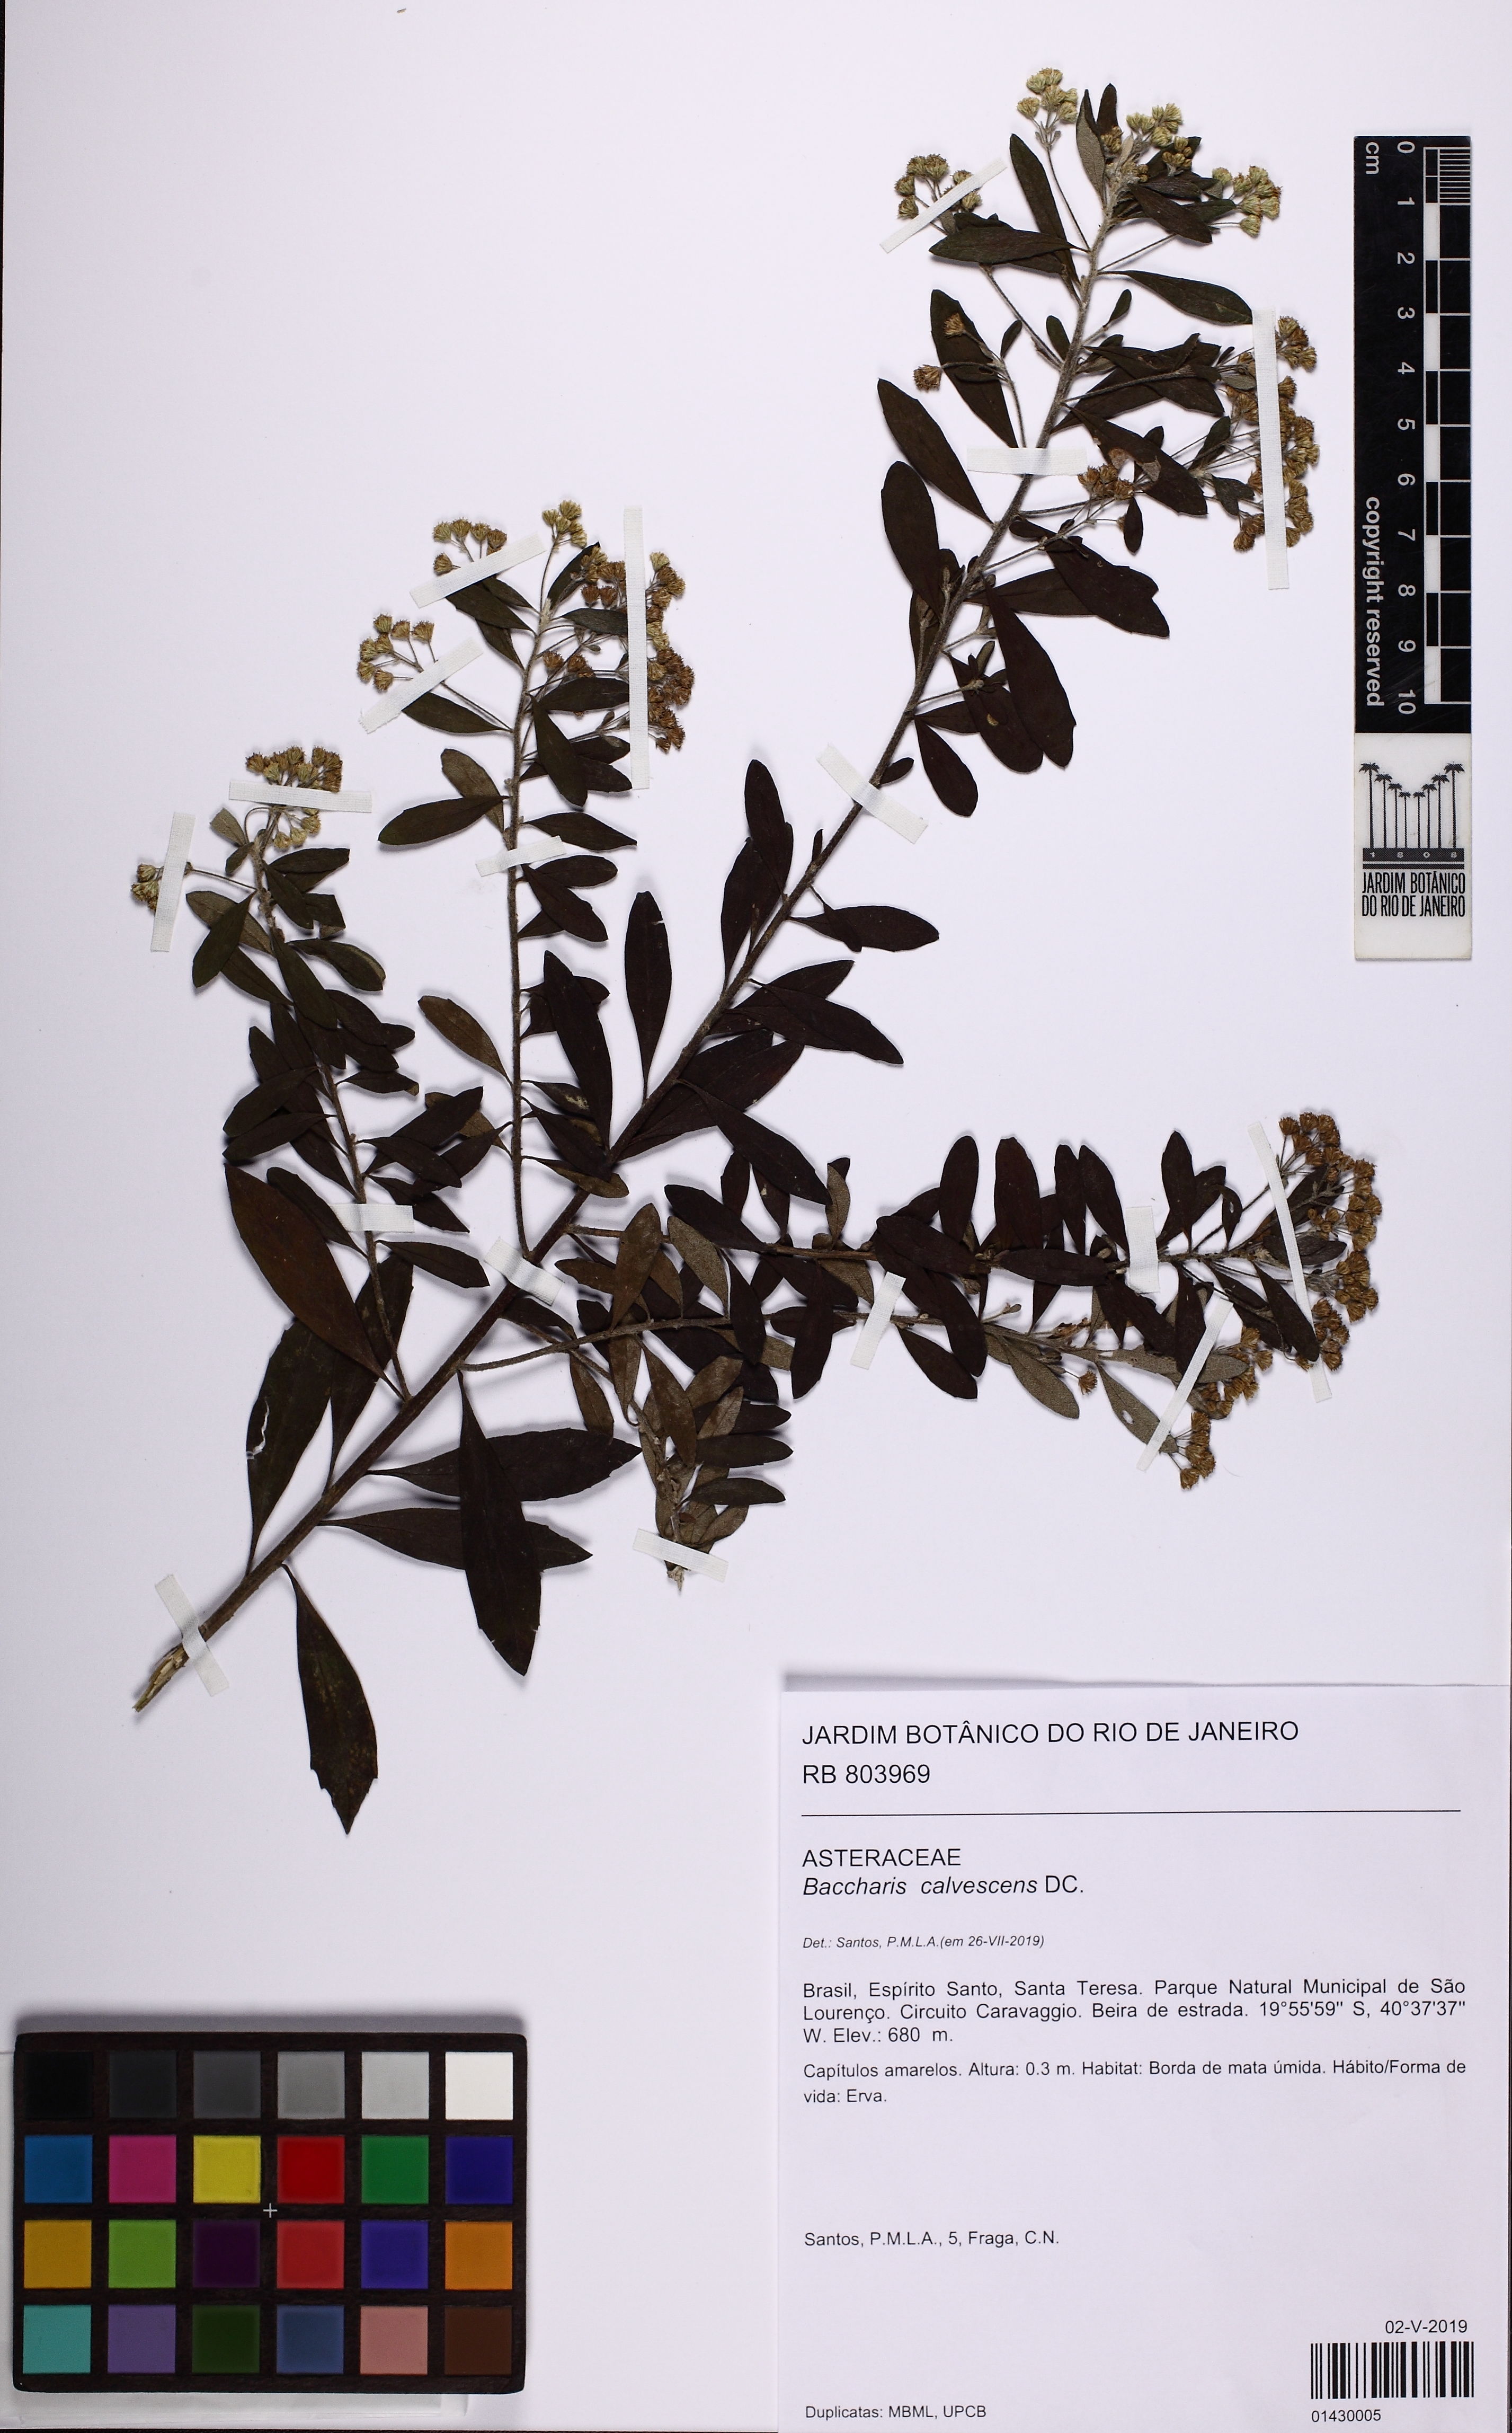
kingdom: Plantae
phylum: Tracheophyta
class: Magnoliopsida
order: Asterales
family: Asteraceae
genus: Baccharis
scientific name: Baccharis calvescens
